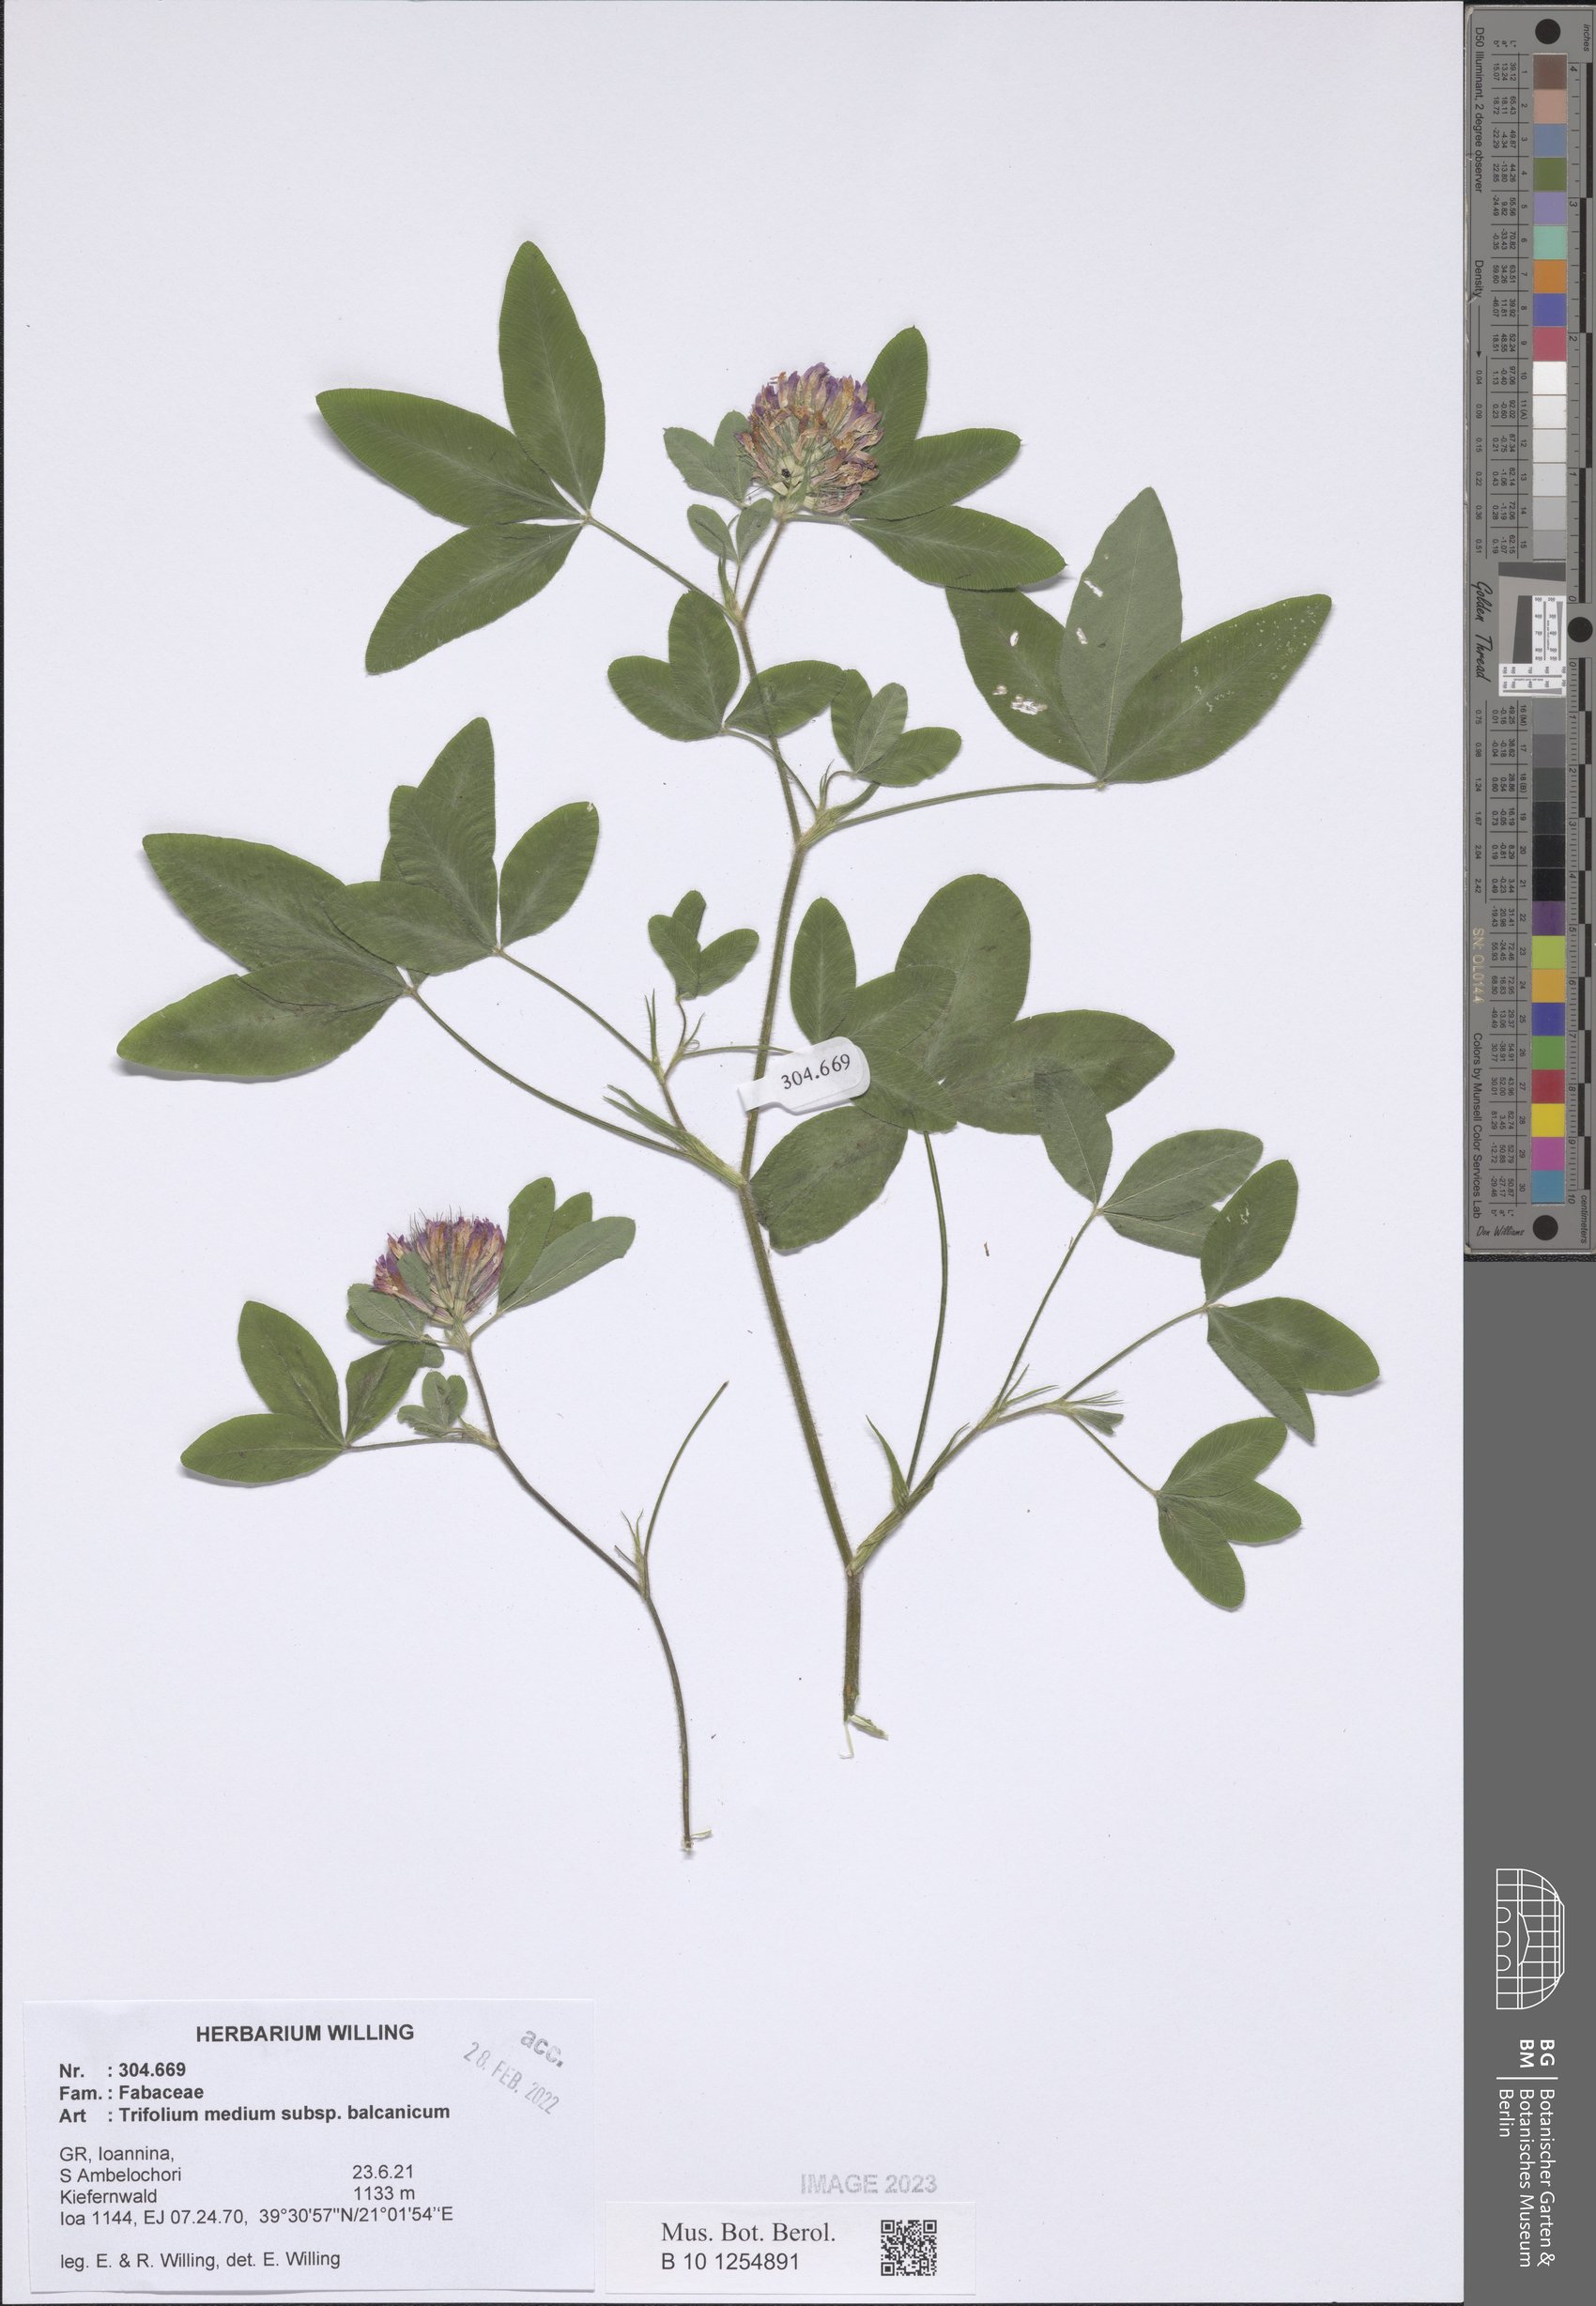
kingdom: Plantae
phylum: Tracheophyta
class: Magnoliopsida
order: Fabales
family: Fabaceae
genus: Trifolium
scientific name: Trifolium medium
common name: Zigzag clover
